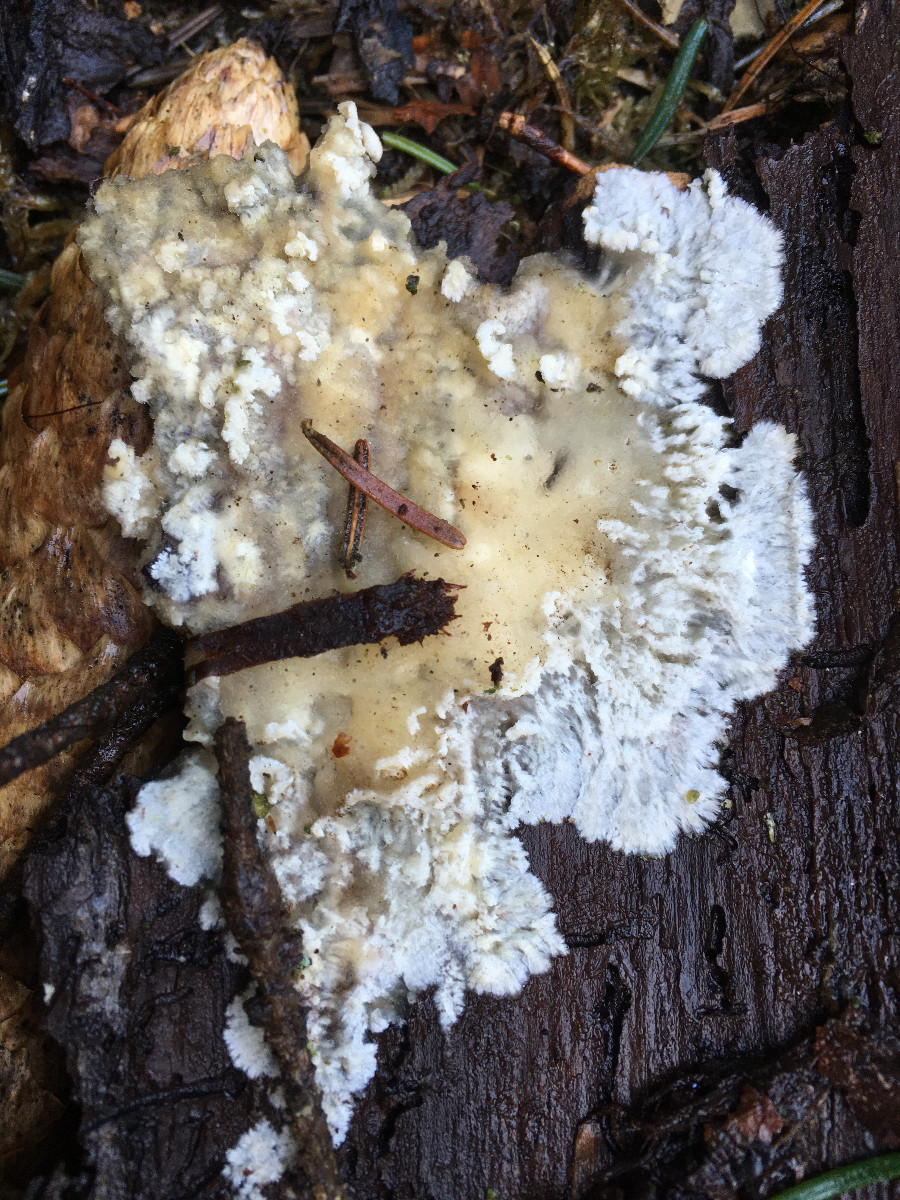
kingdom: Fungi
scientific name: Fungi
